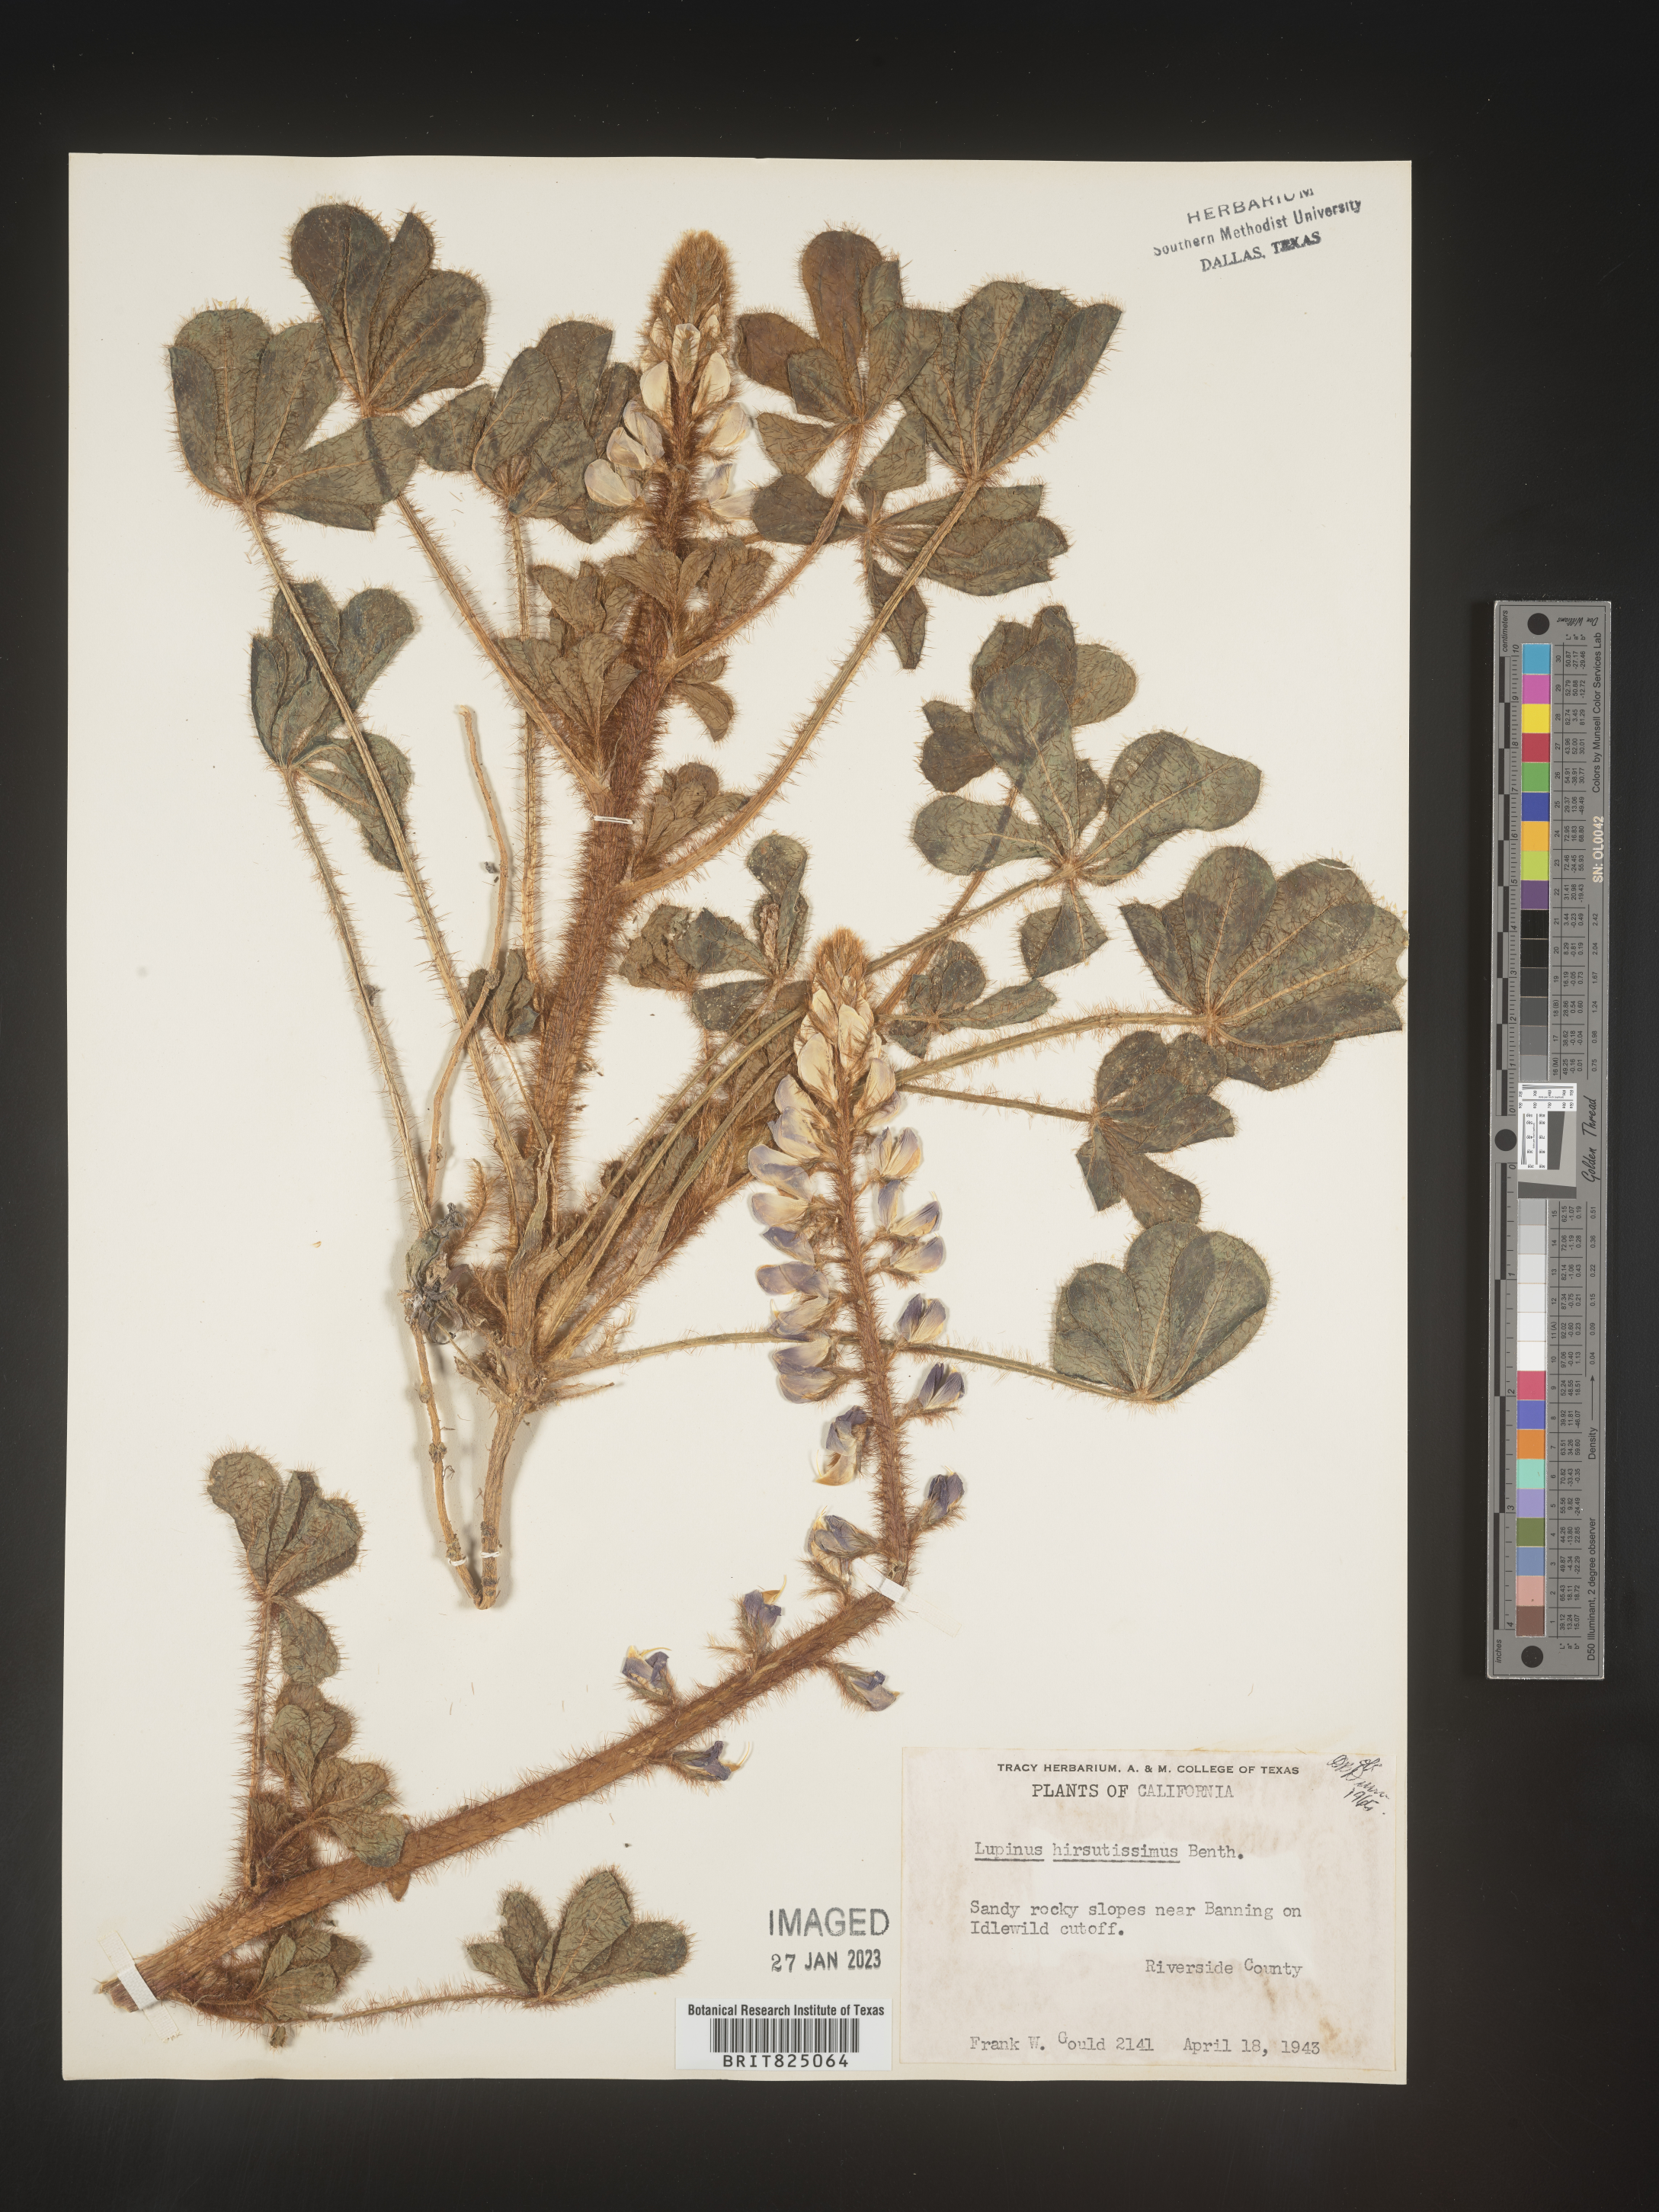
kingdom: Plantae
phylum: Tracheophyta
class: Magnoliopsida
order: Fabales
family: Fabaceae
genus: Lupinus
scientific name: Lupinus
